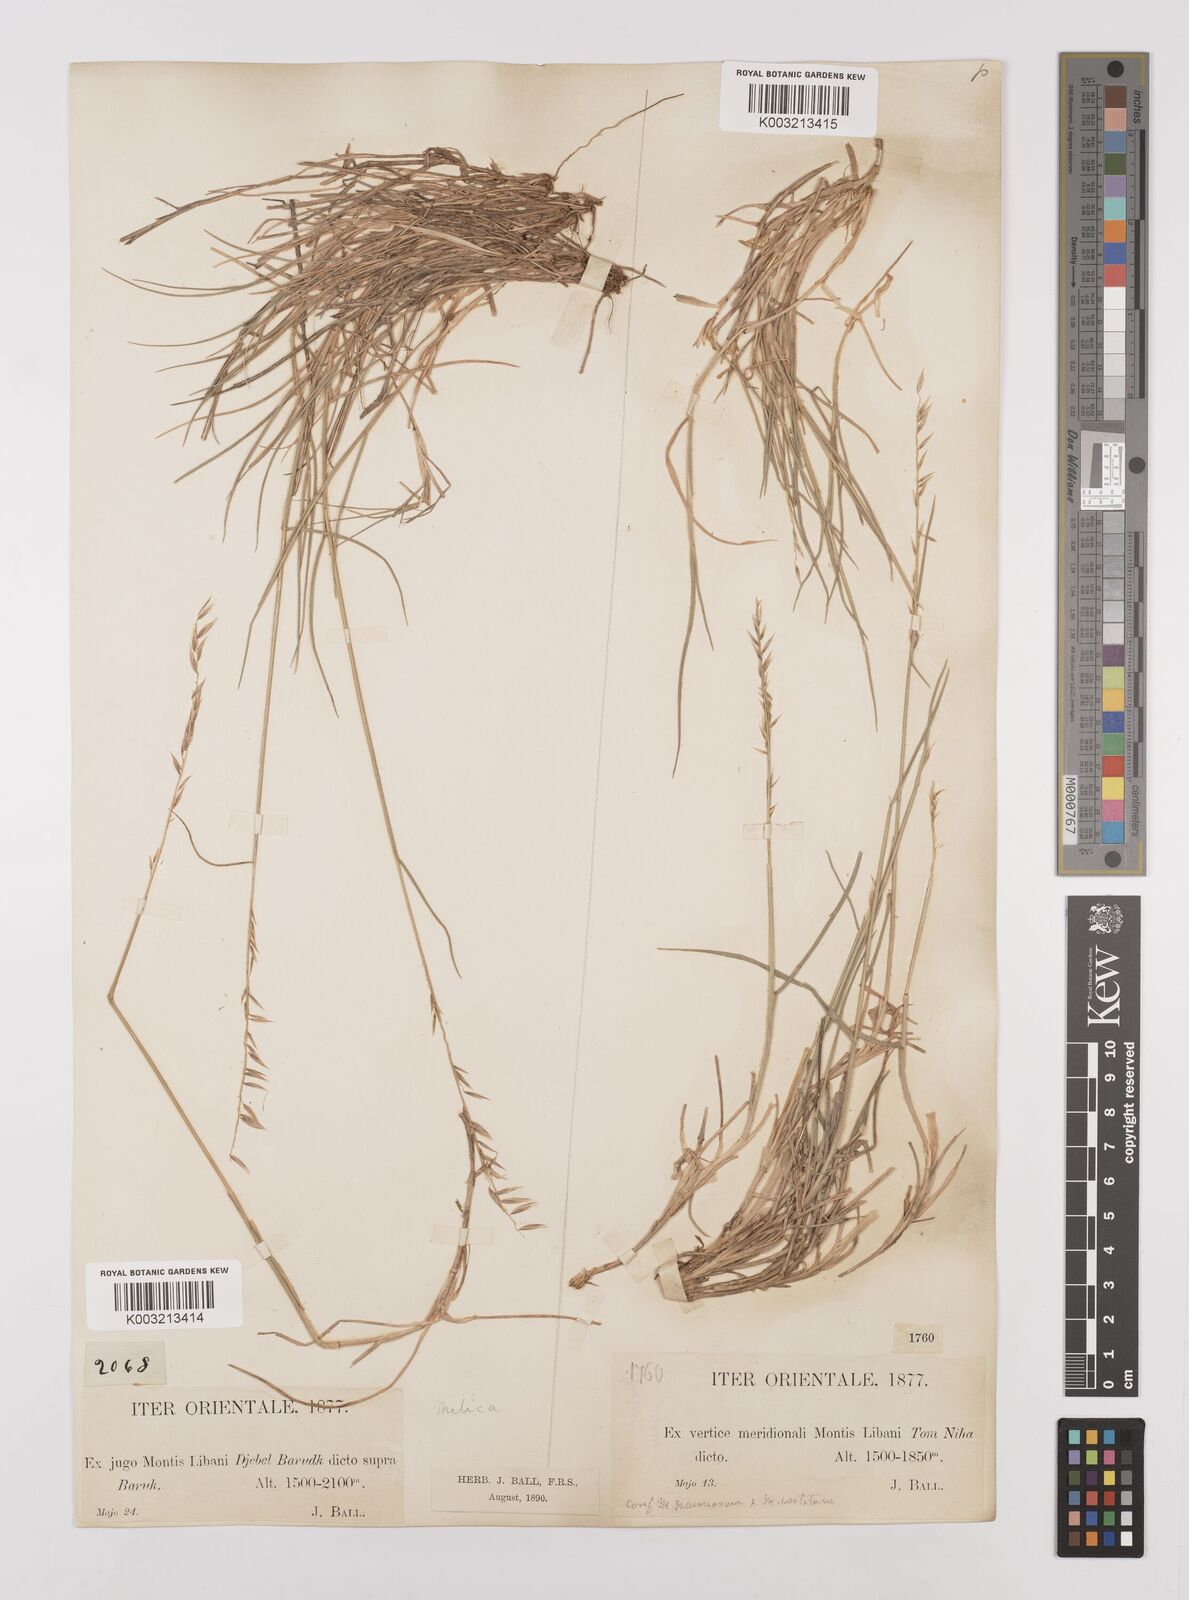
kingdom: Plantae
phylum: Tracheophyta
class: Liliopsida
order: Poales
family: Poaceae
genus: Melica
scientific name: Melica persica
